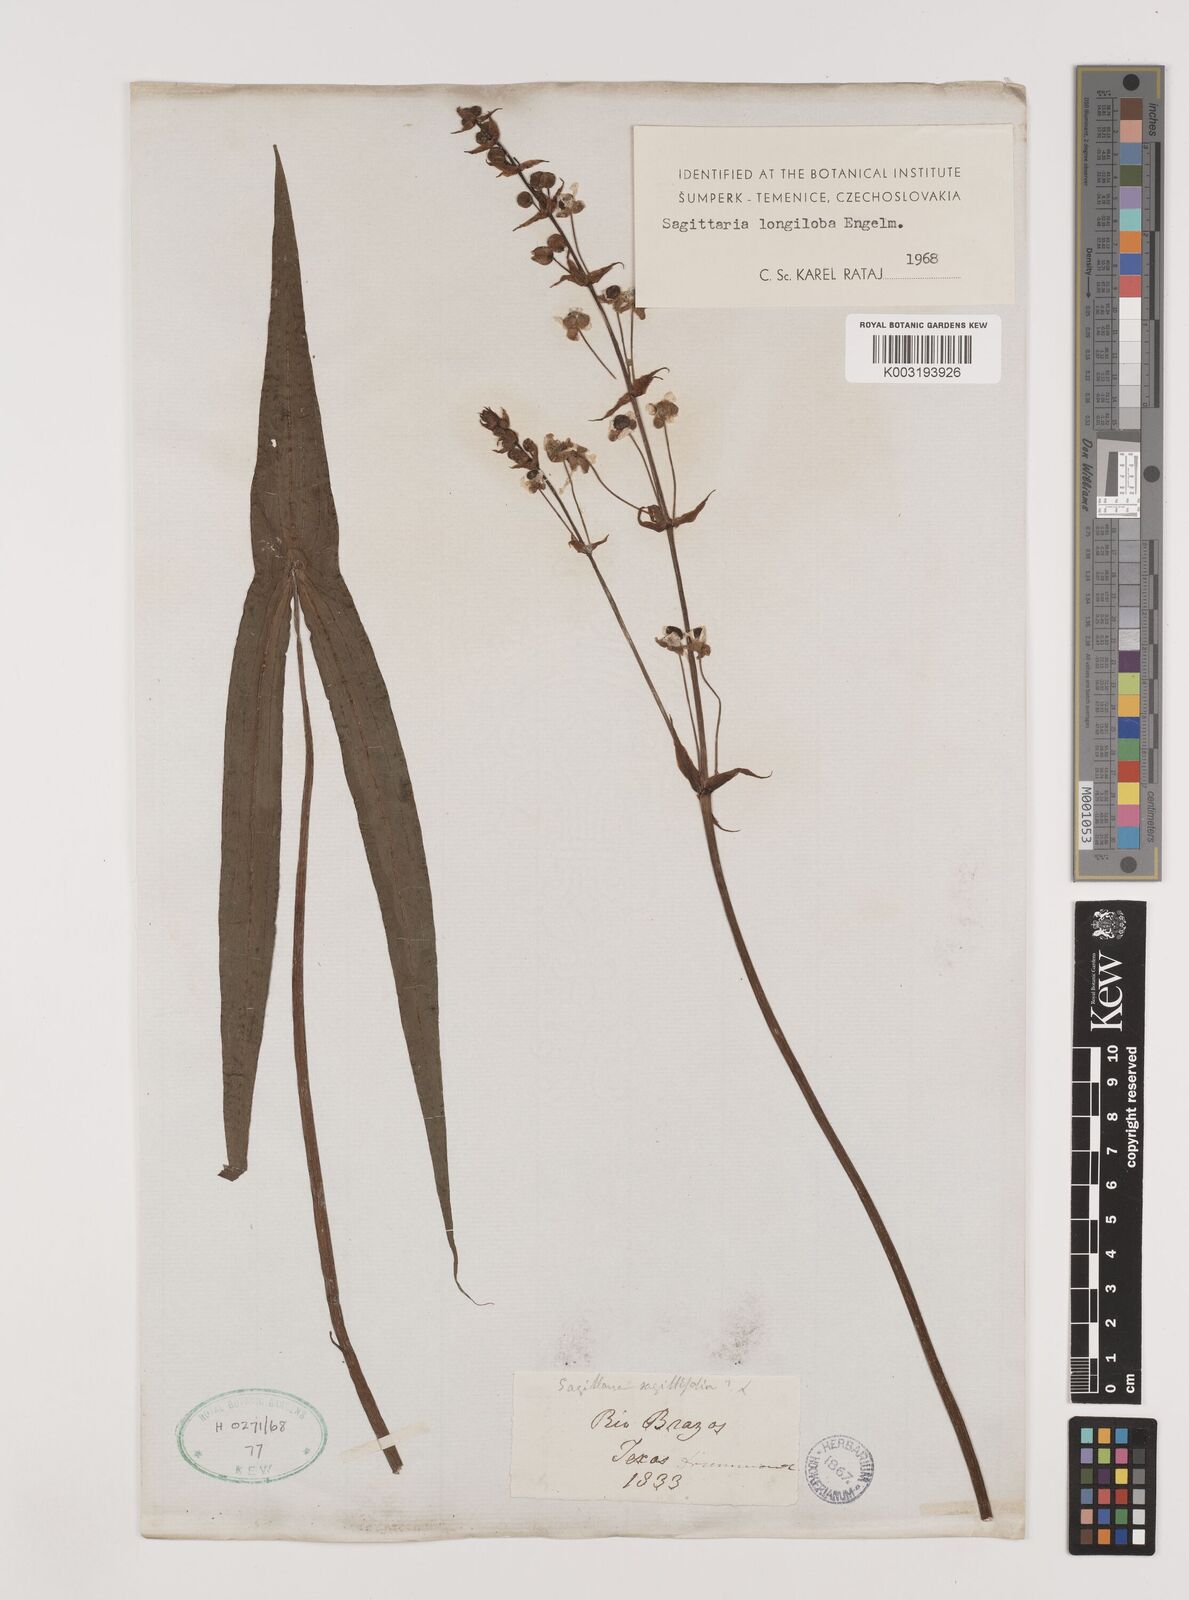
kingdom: Plantae
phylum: Tracheophyta
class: Liliopsida
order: Alismatales
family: Alismataceae
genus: Sagittaria
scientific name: Sagittaria longiloba
